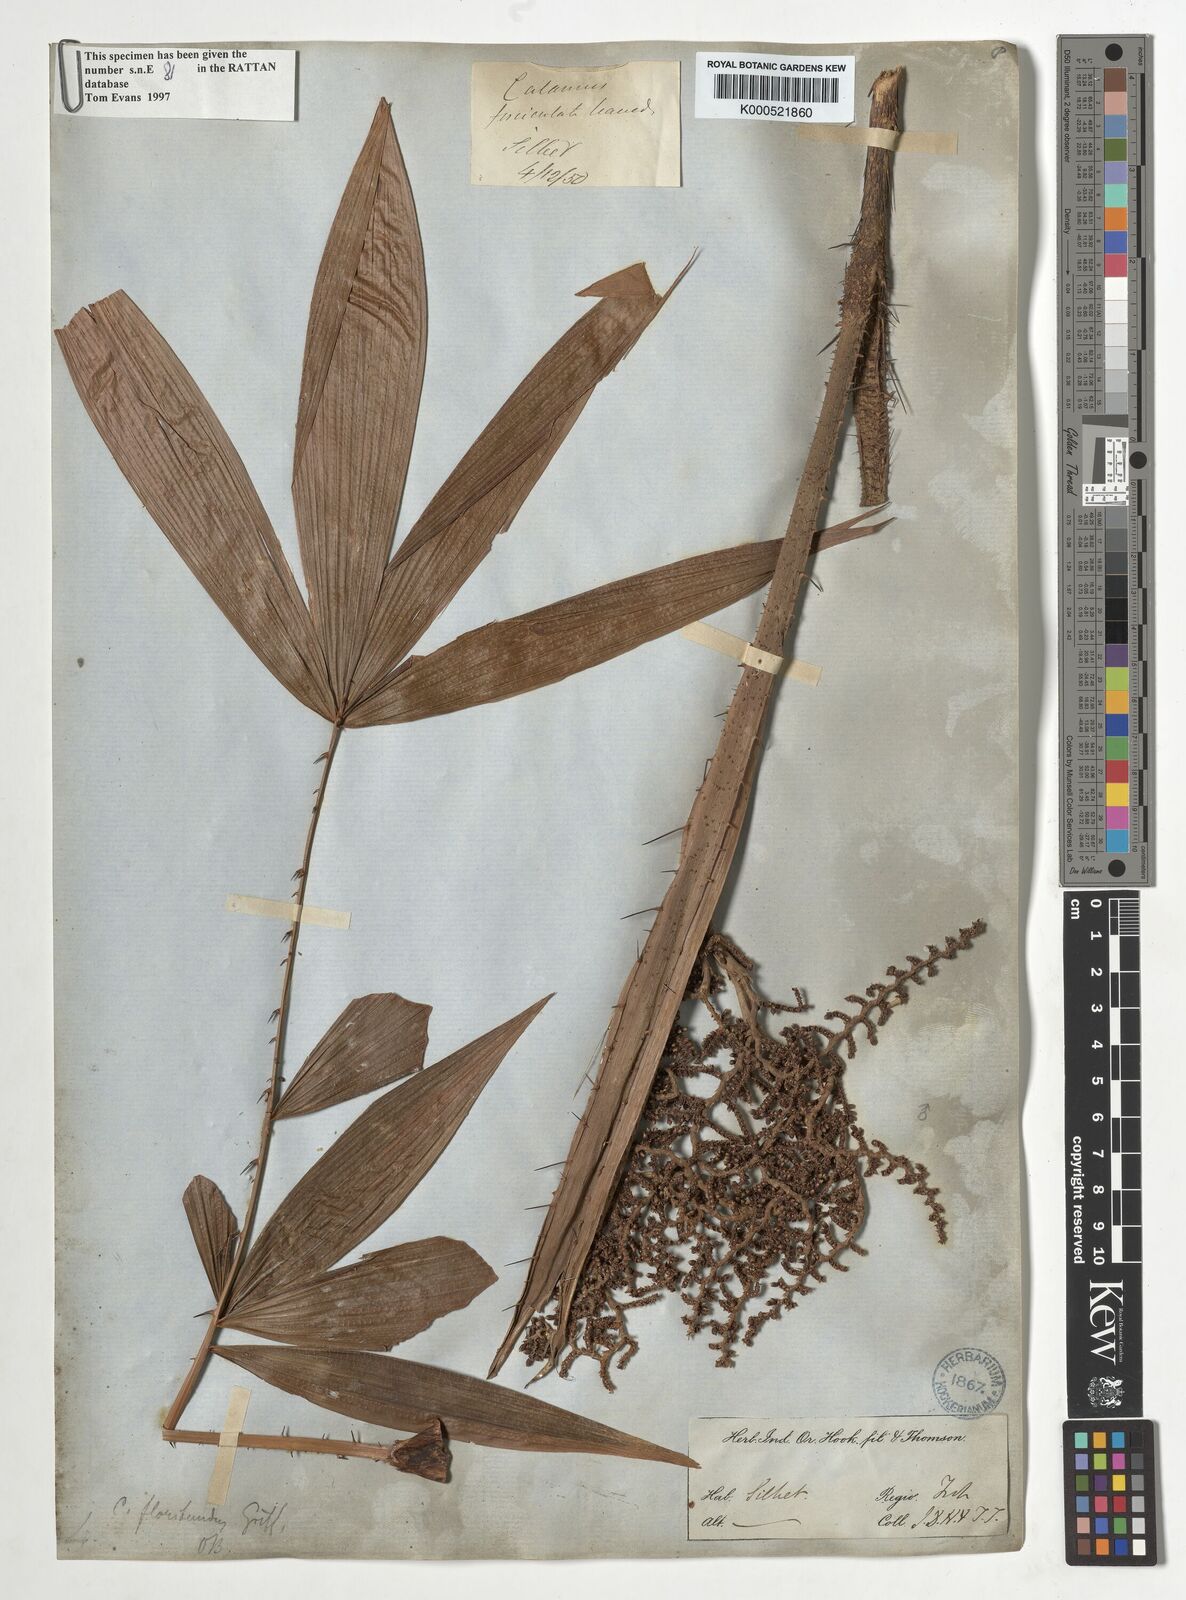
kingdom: Plantae
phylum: Tracheophyta
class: Liliopsida
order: Arecales
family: Arecaceae
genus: Calamus
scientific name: Calamus floribundus
